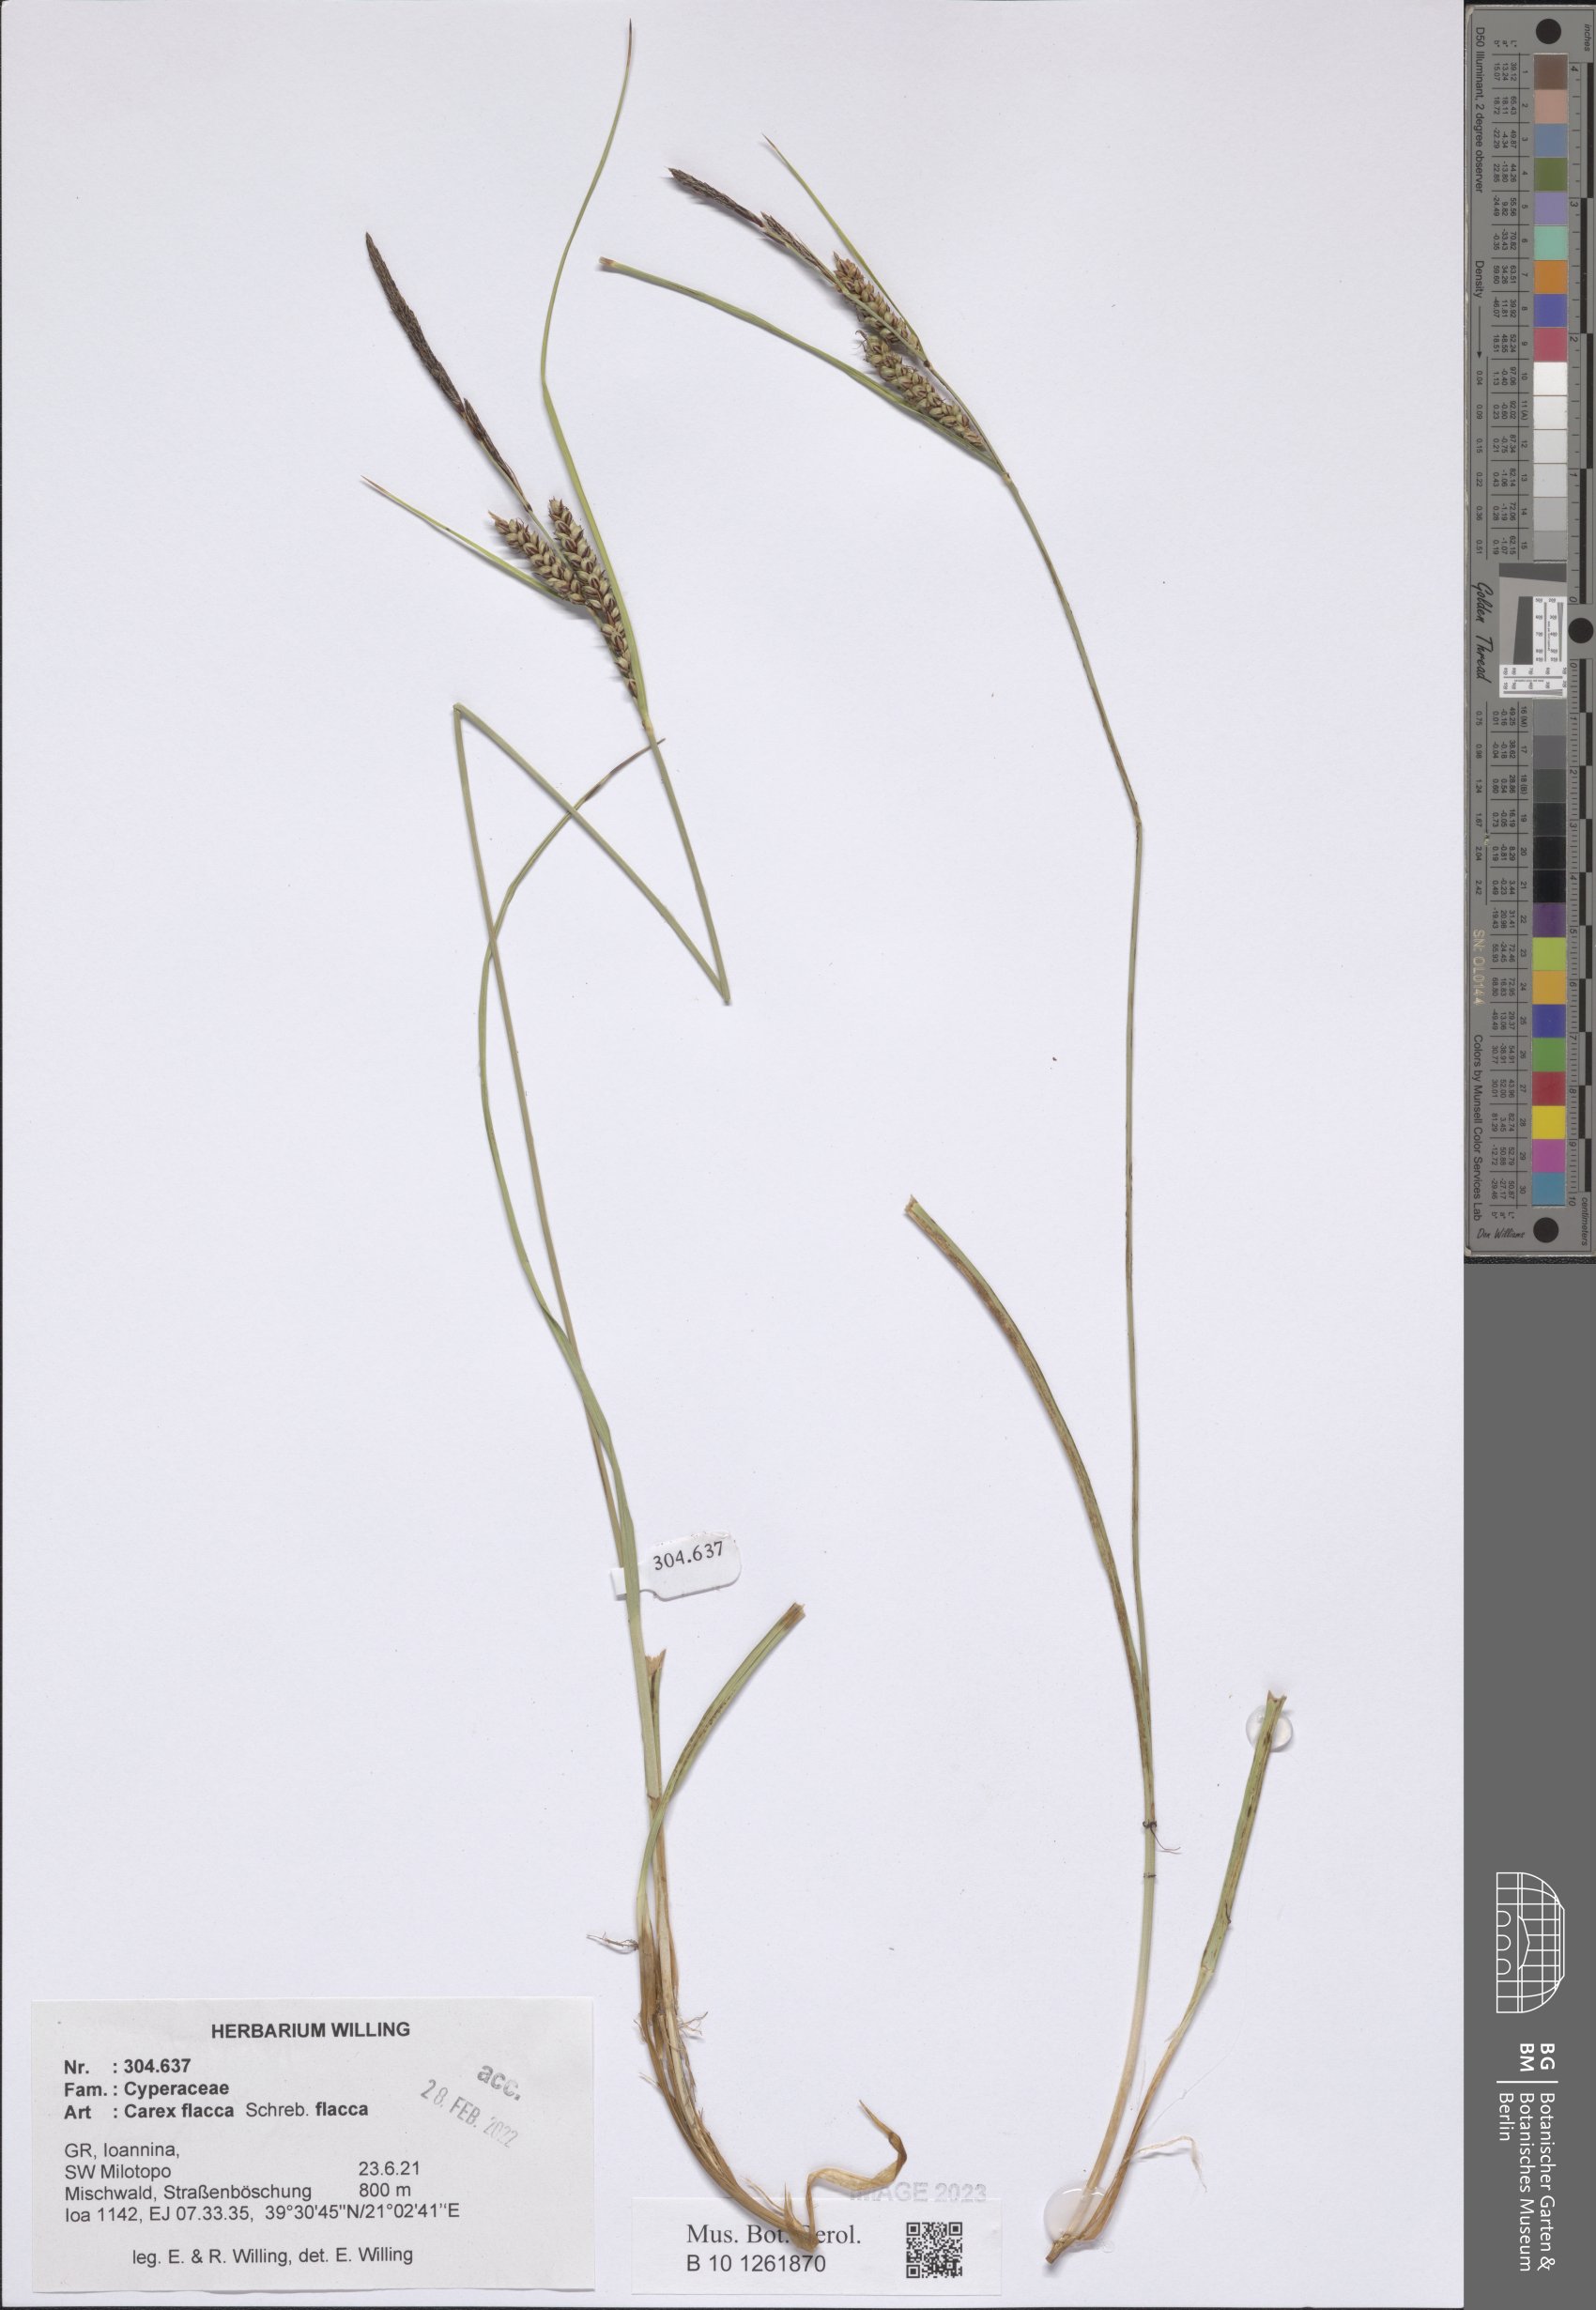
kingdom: Plantae
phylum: Tracheophyta
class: Liliopsida
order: Poales
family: Cyperaceae
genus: Carex
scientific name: Carex flacca
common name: Glaucous sedge
